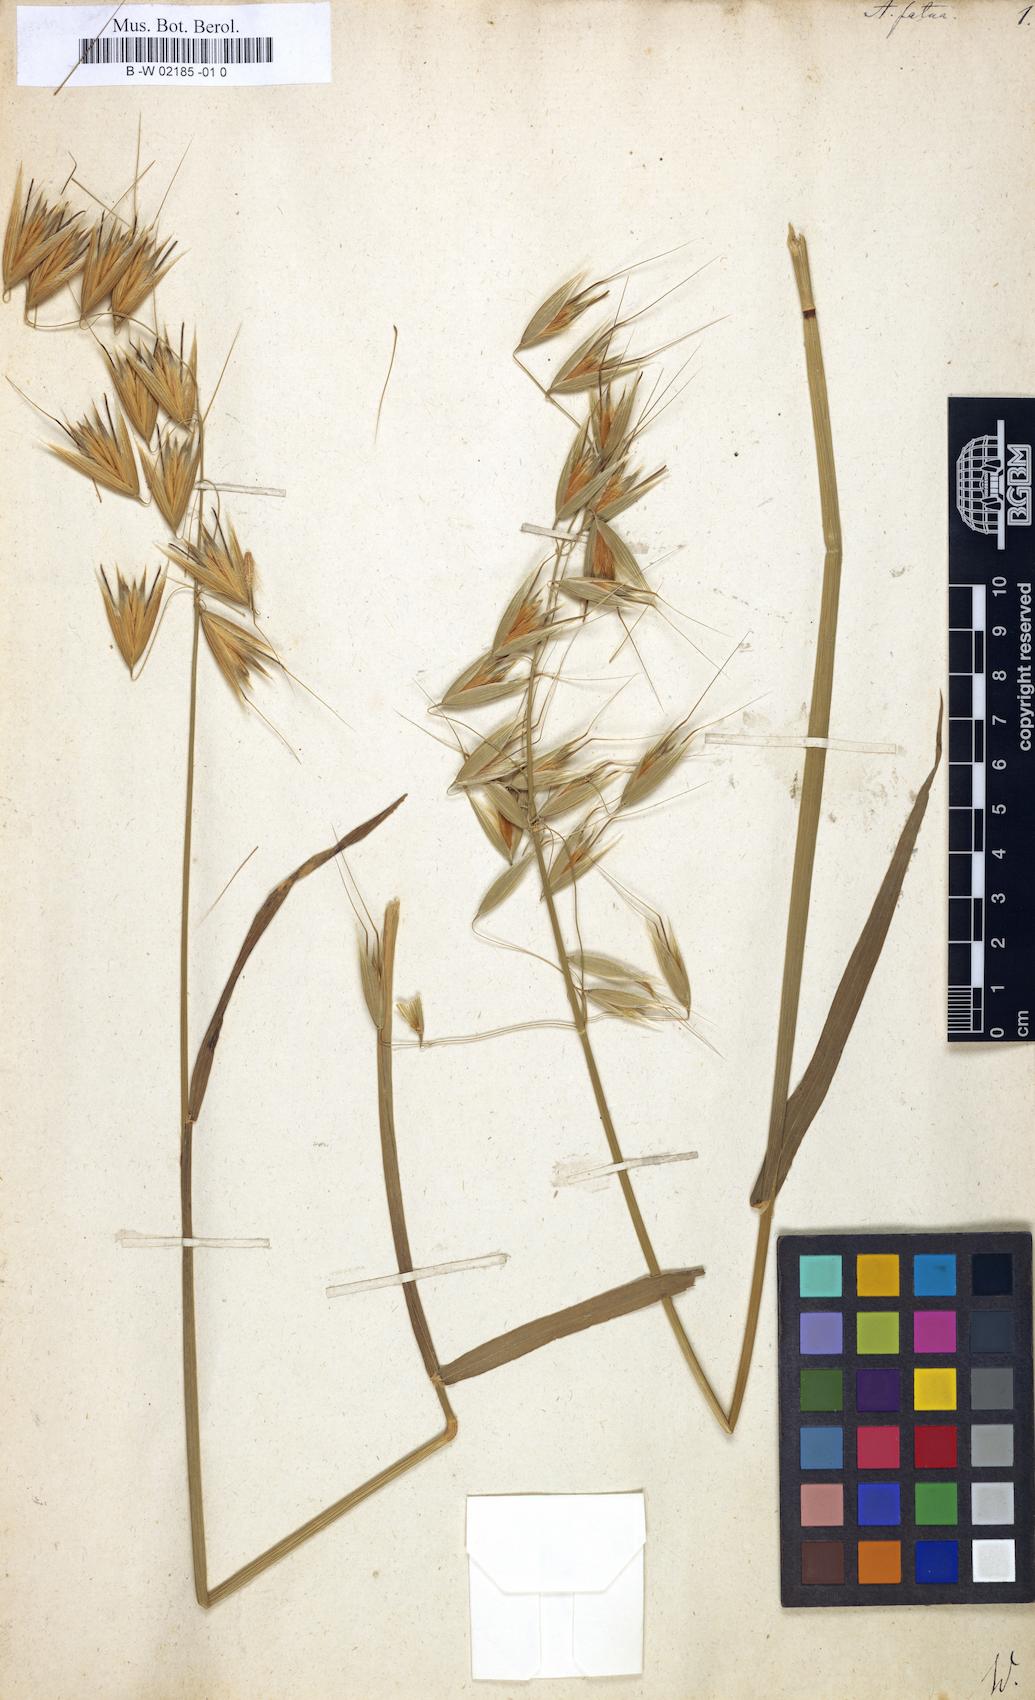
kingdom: Plantae
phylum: Tracheophyta
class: Liliopsida
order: Poales
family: Poaceae
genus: Avena
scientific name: Avena fatua
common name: Wild oat
